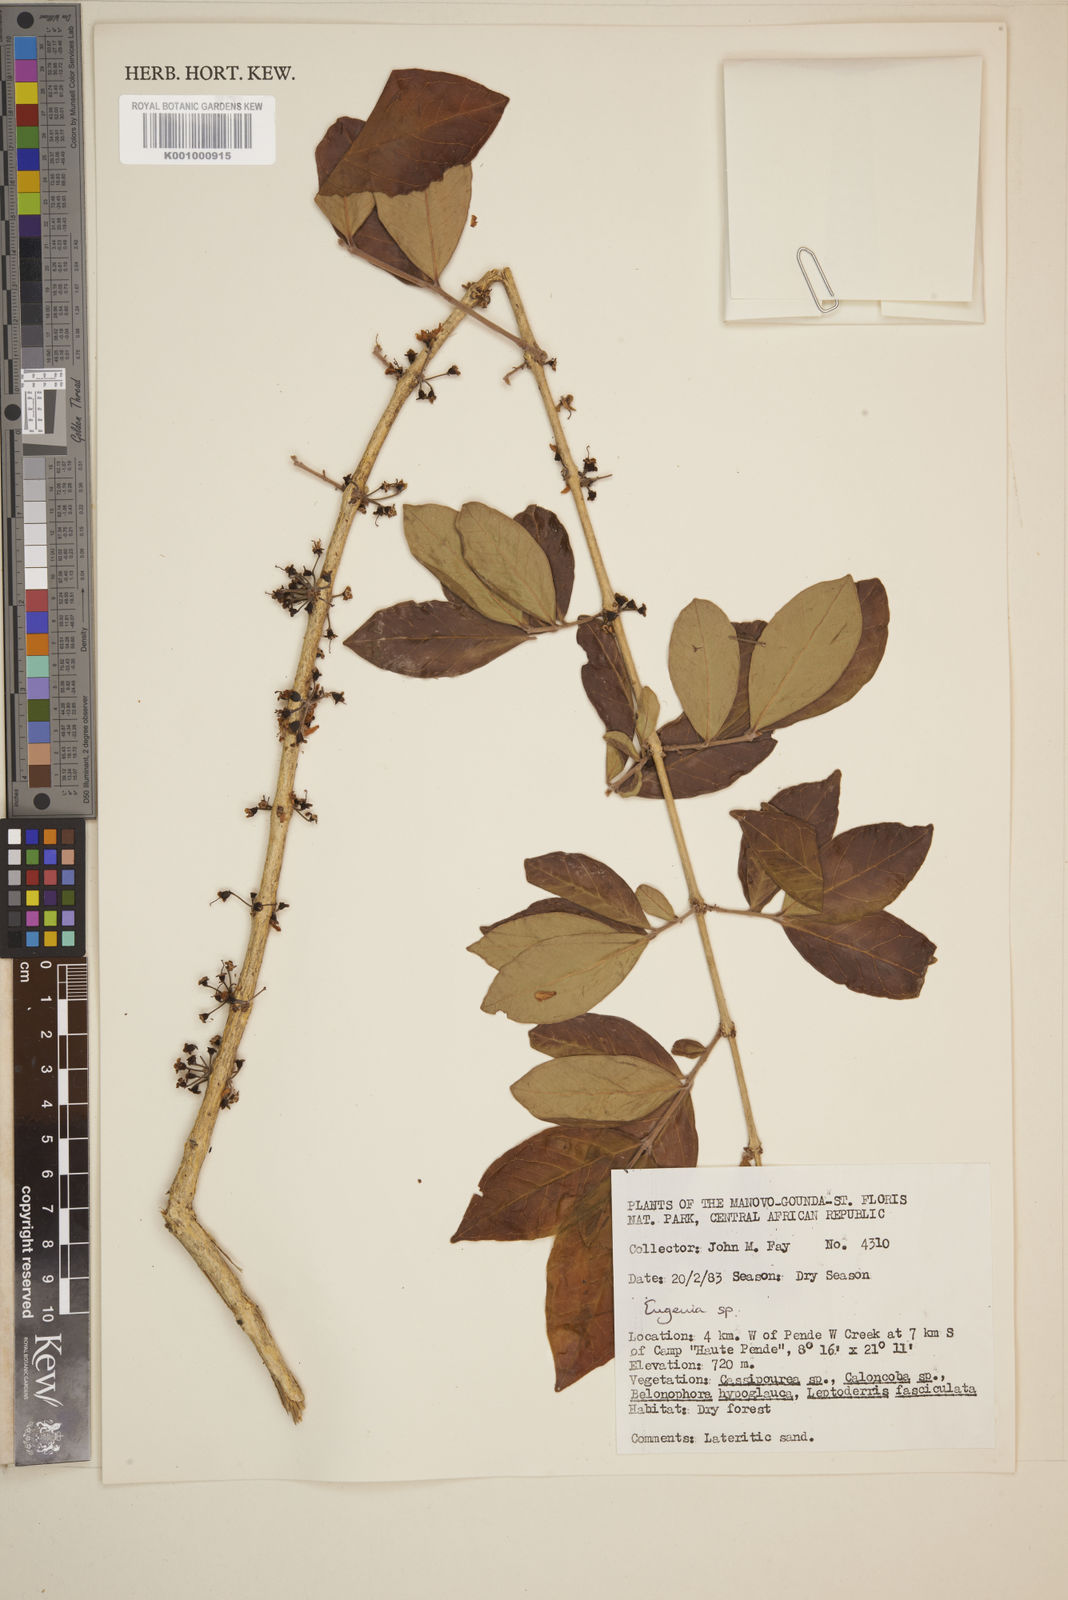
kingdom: Plantae
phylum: Tracheophyta
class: Magnoliopsida
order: Myrtales
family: Myrtaceae
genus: Eugenia
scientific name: Eugenia
